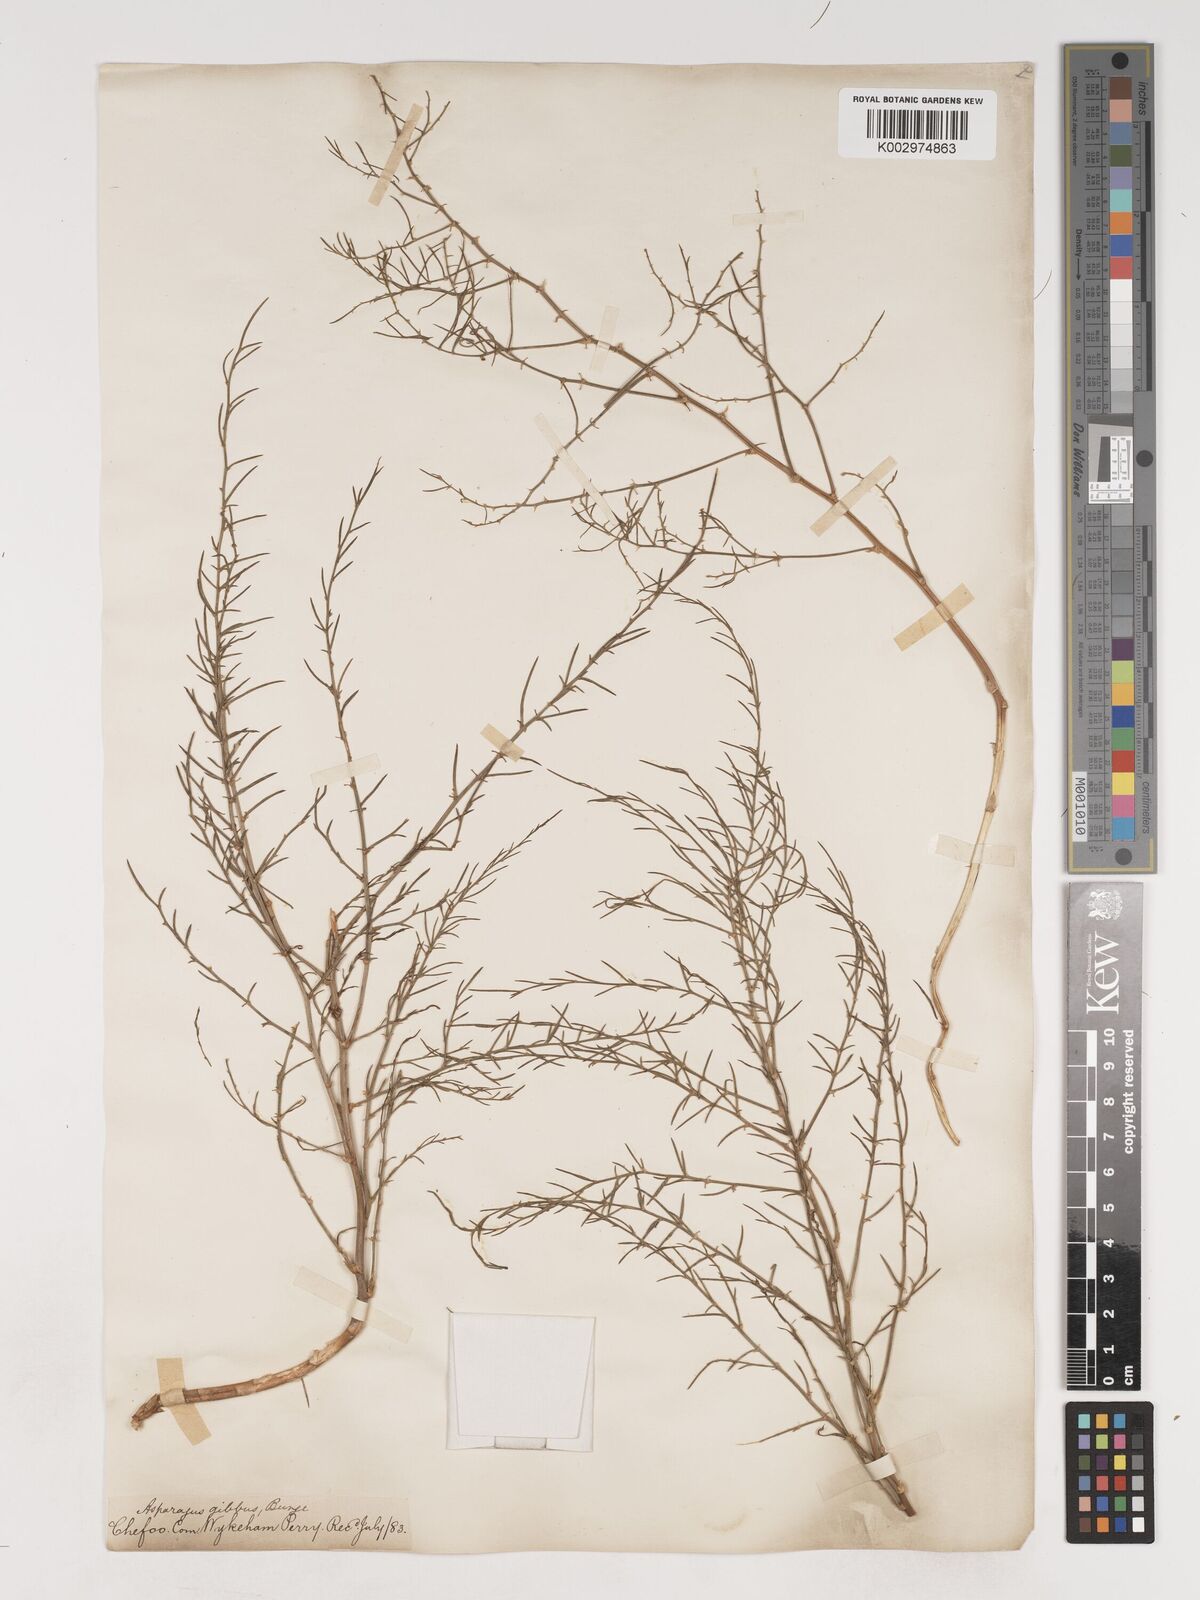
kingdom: Plantae
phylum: Tracheophyta
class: Liliopsida
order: Asparagales
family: Asparagaceae
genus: Asparagus
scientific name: Asparagus dauricus
